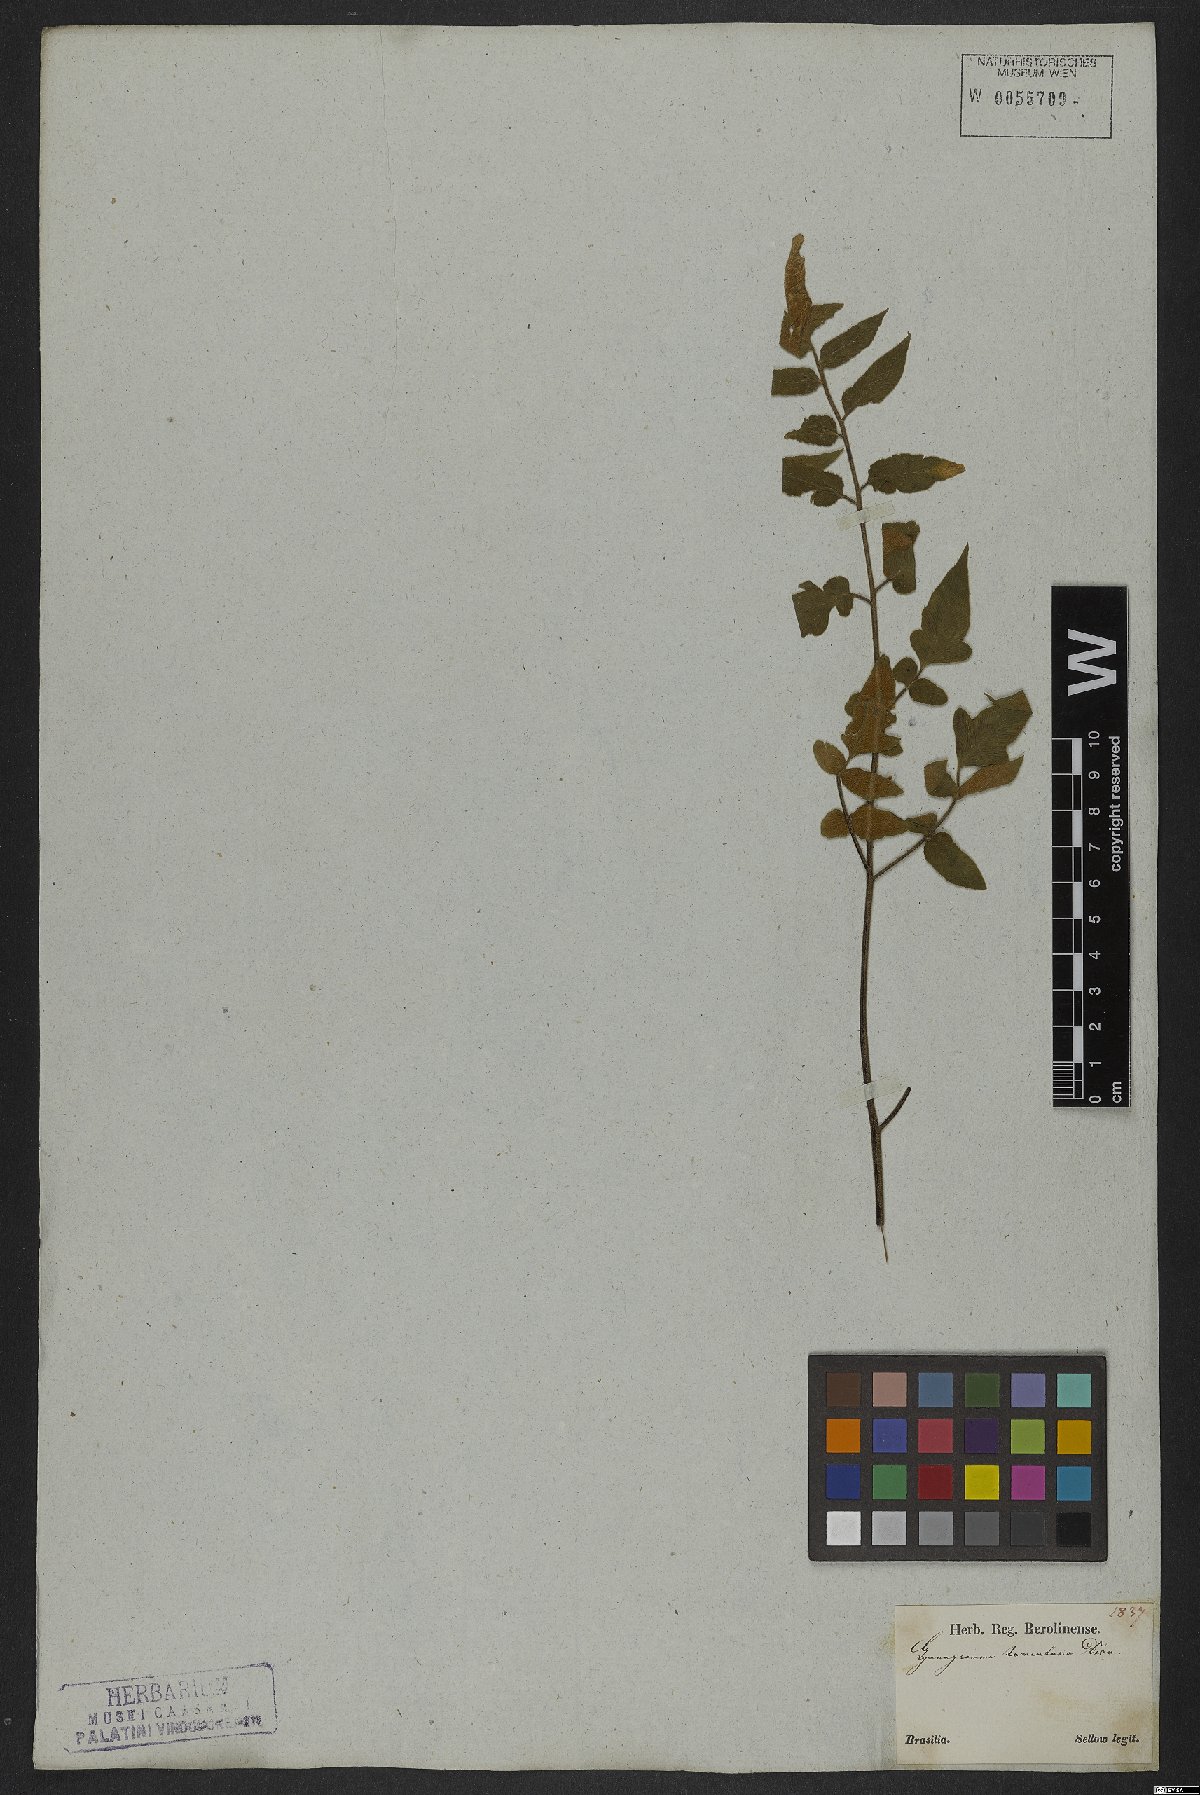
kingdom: Plantae
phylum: Tracheophyta
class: Polypodiopsida
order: Polypodiales
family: Pteridaceae
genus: Hemionitis
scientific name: Hemionitis tomentosa
